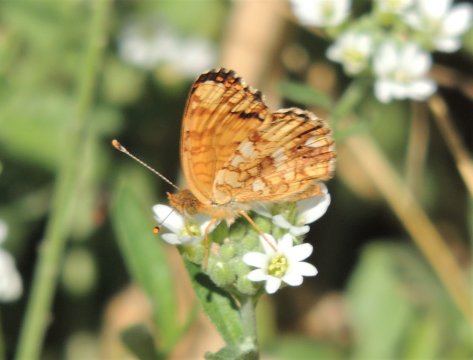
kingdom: Animalia
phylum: Arthropoda
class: Insecta
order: Lepidoptera
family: Nymphalidae
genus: Eresia
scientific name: Eresia aveyrona
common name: Mylitta Crescent
